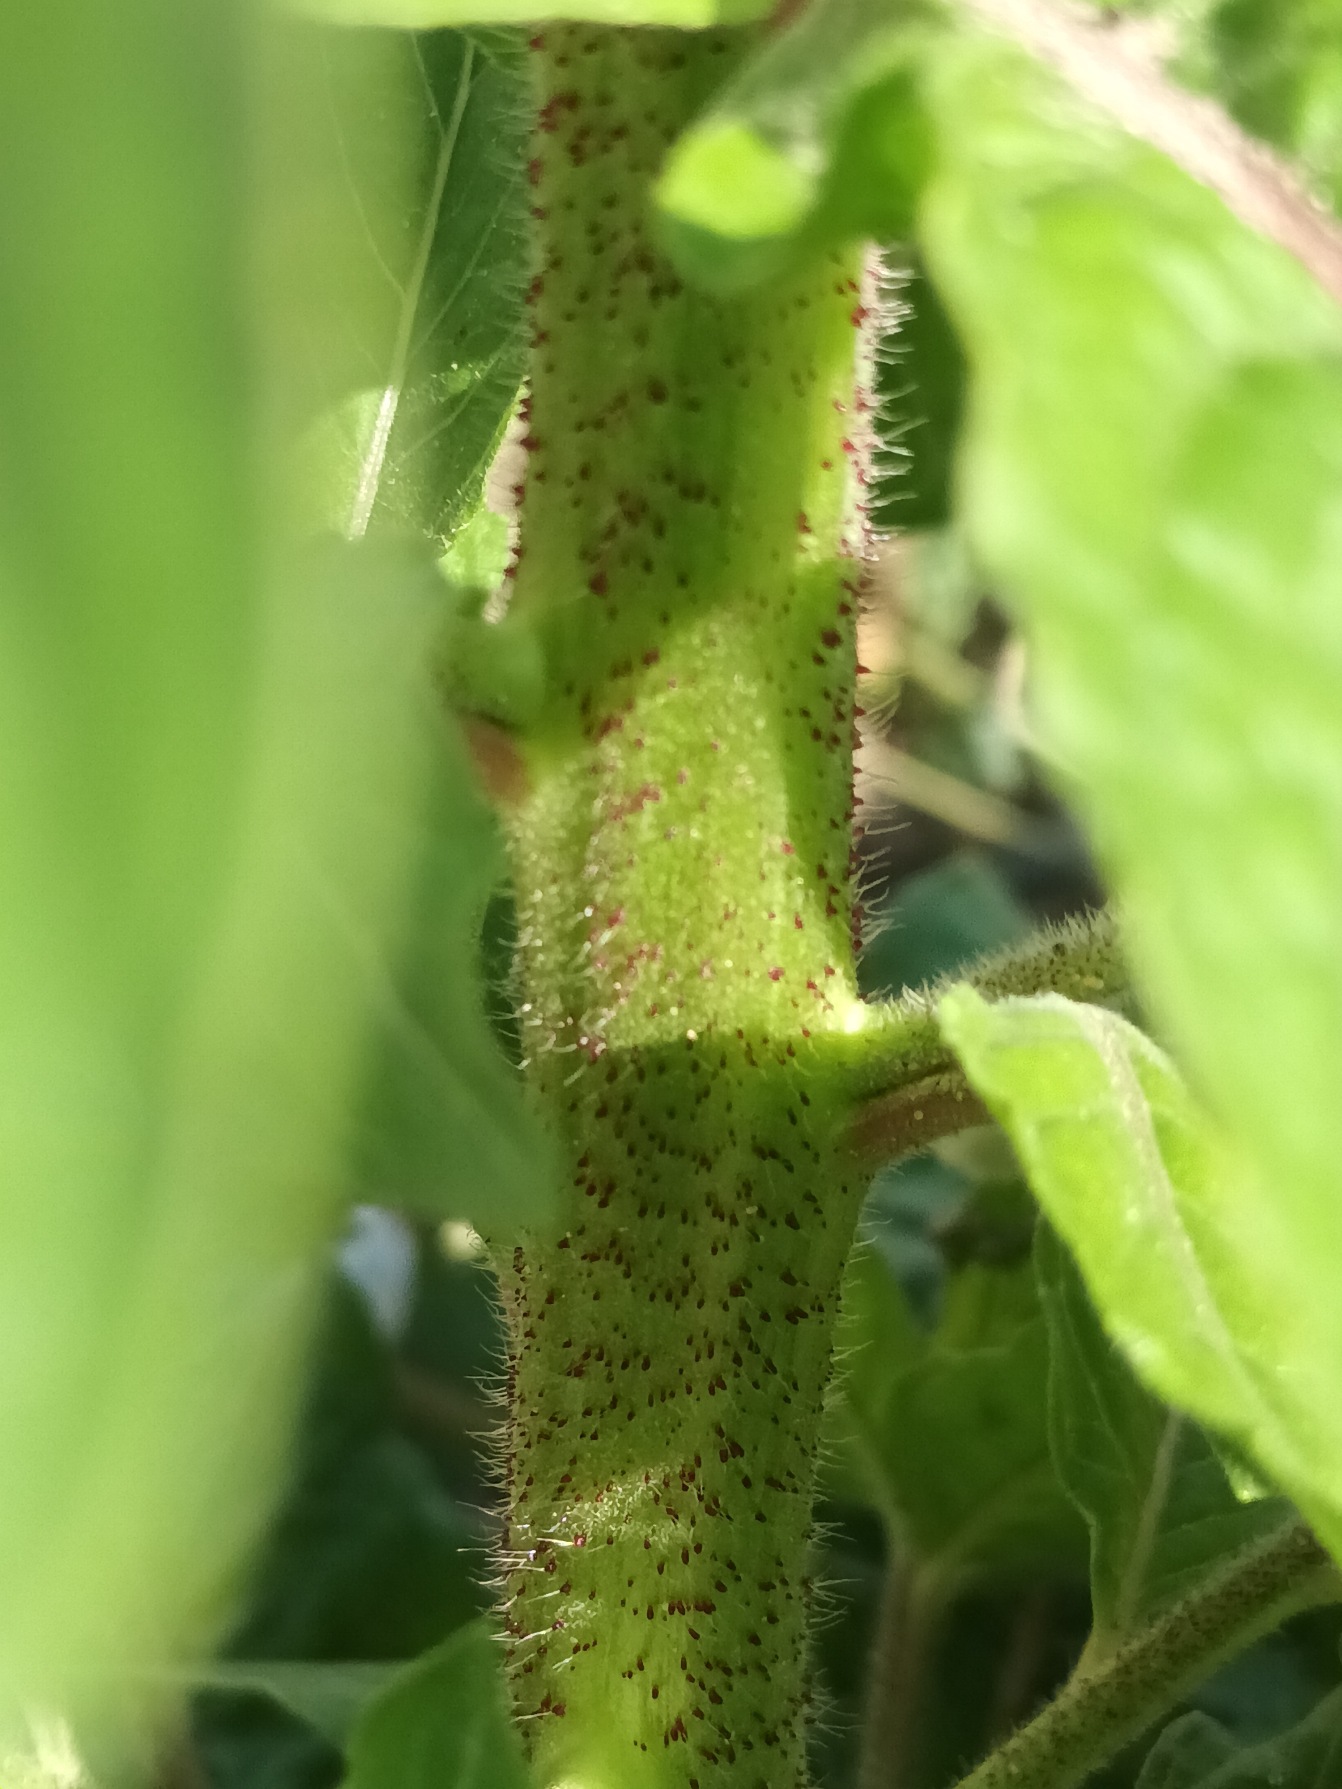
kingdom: Plantae
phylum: Tracheophyta
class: Magnoliopsida
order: Myrtales
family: Onagraceae
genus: Oenothera
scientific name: Oenothera
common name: Natlysslægten
